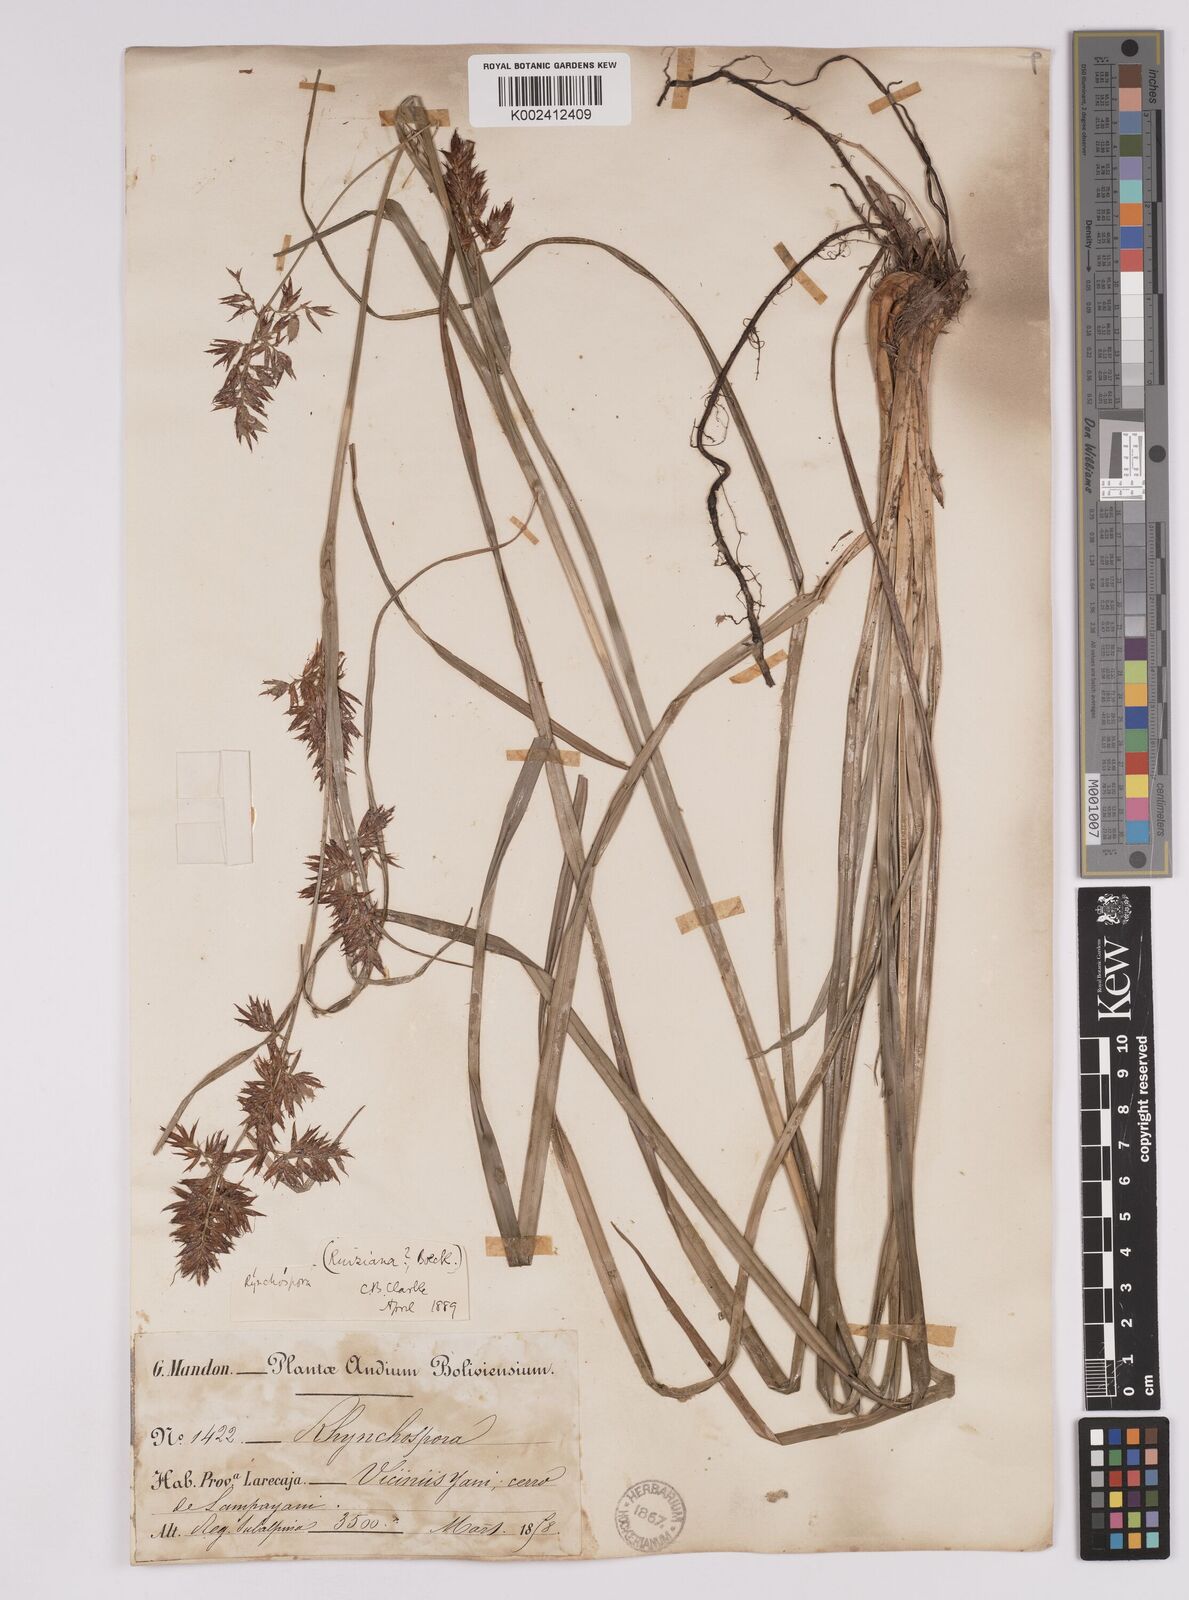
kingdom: Plantae
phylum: Tracheophyta
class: Liliopsida
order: Poales
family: Cyperaceae
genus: Rhynchospora
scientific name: Rhynchospora ruiziana
